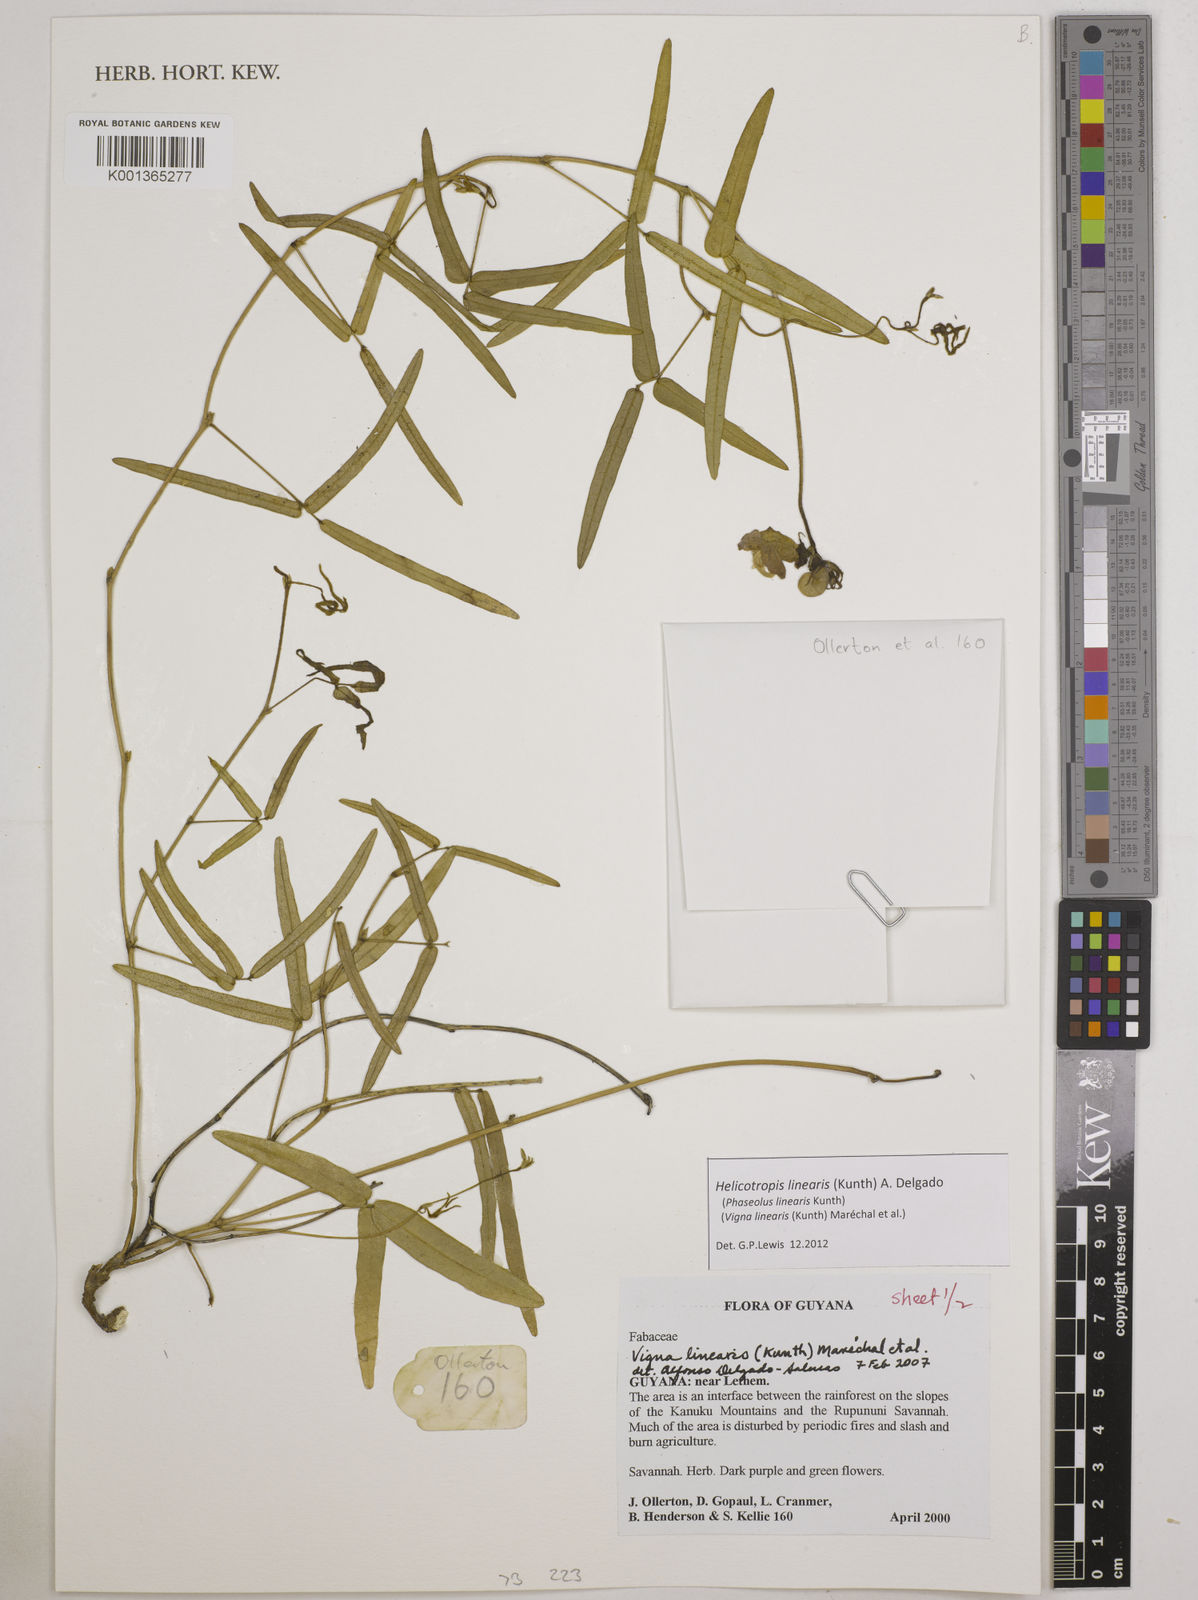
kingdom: Plantae
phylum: Tracheophyta
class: Magnoliopsida
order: Fabales
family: Fabaceae
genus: Helicotropis
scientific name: Helicotropis linearis
